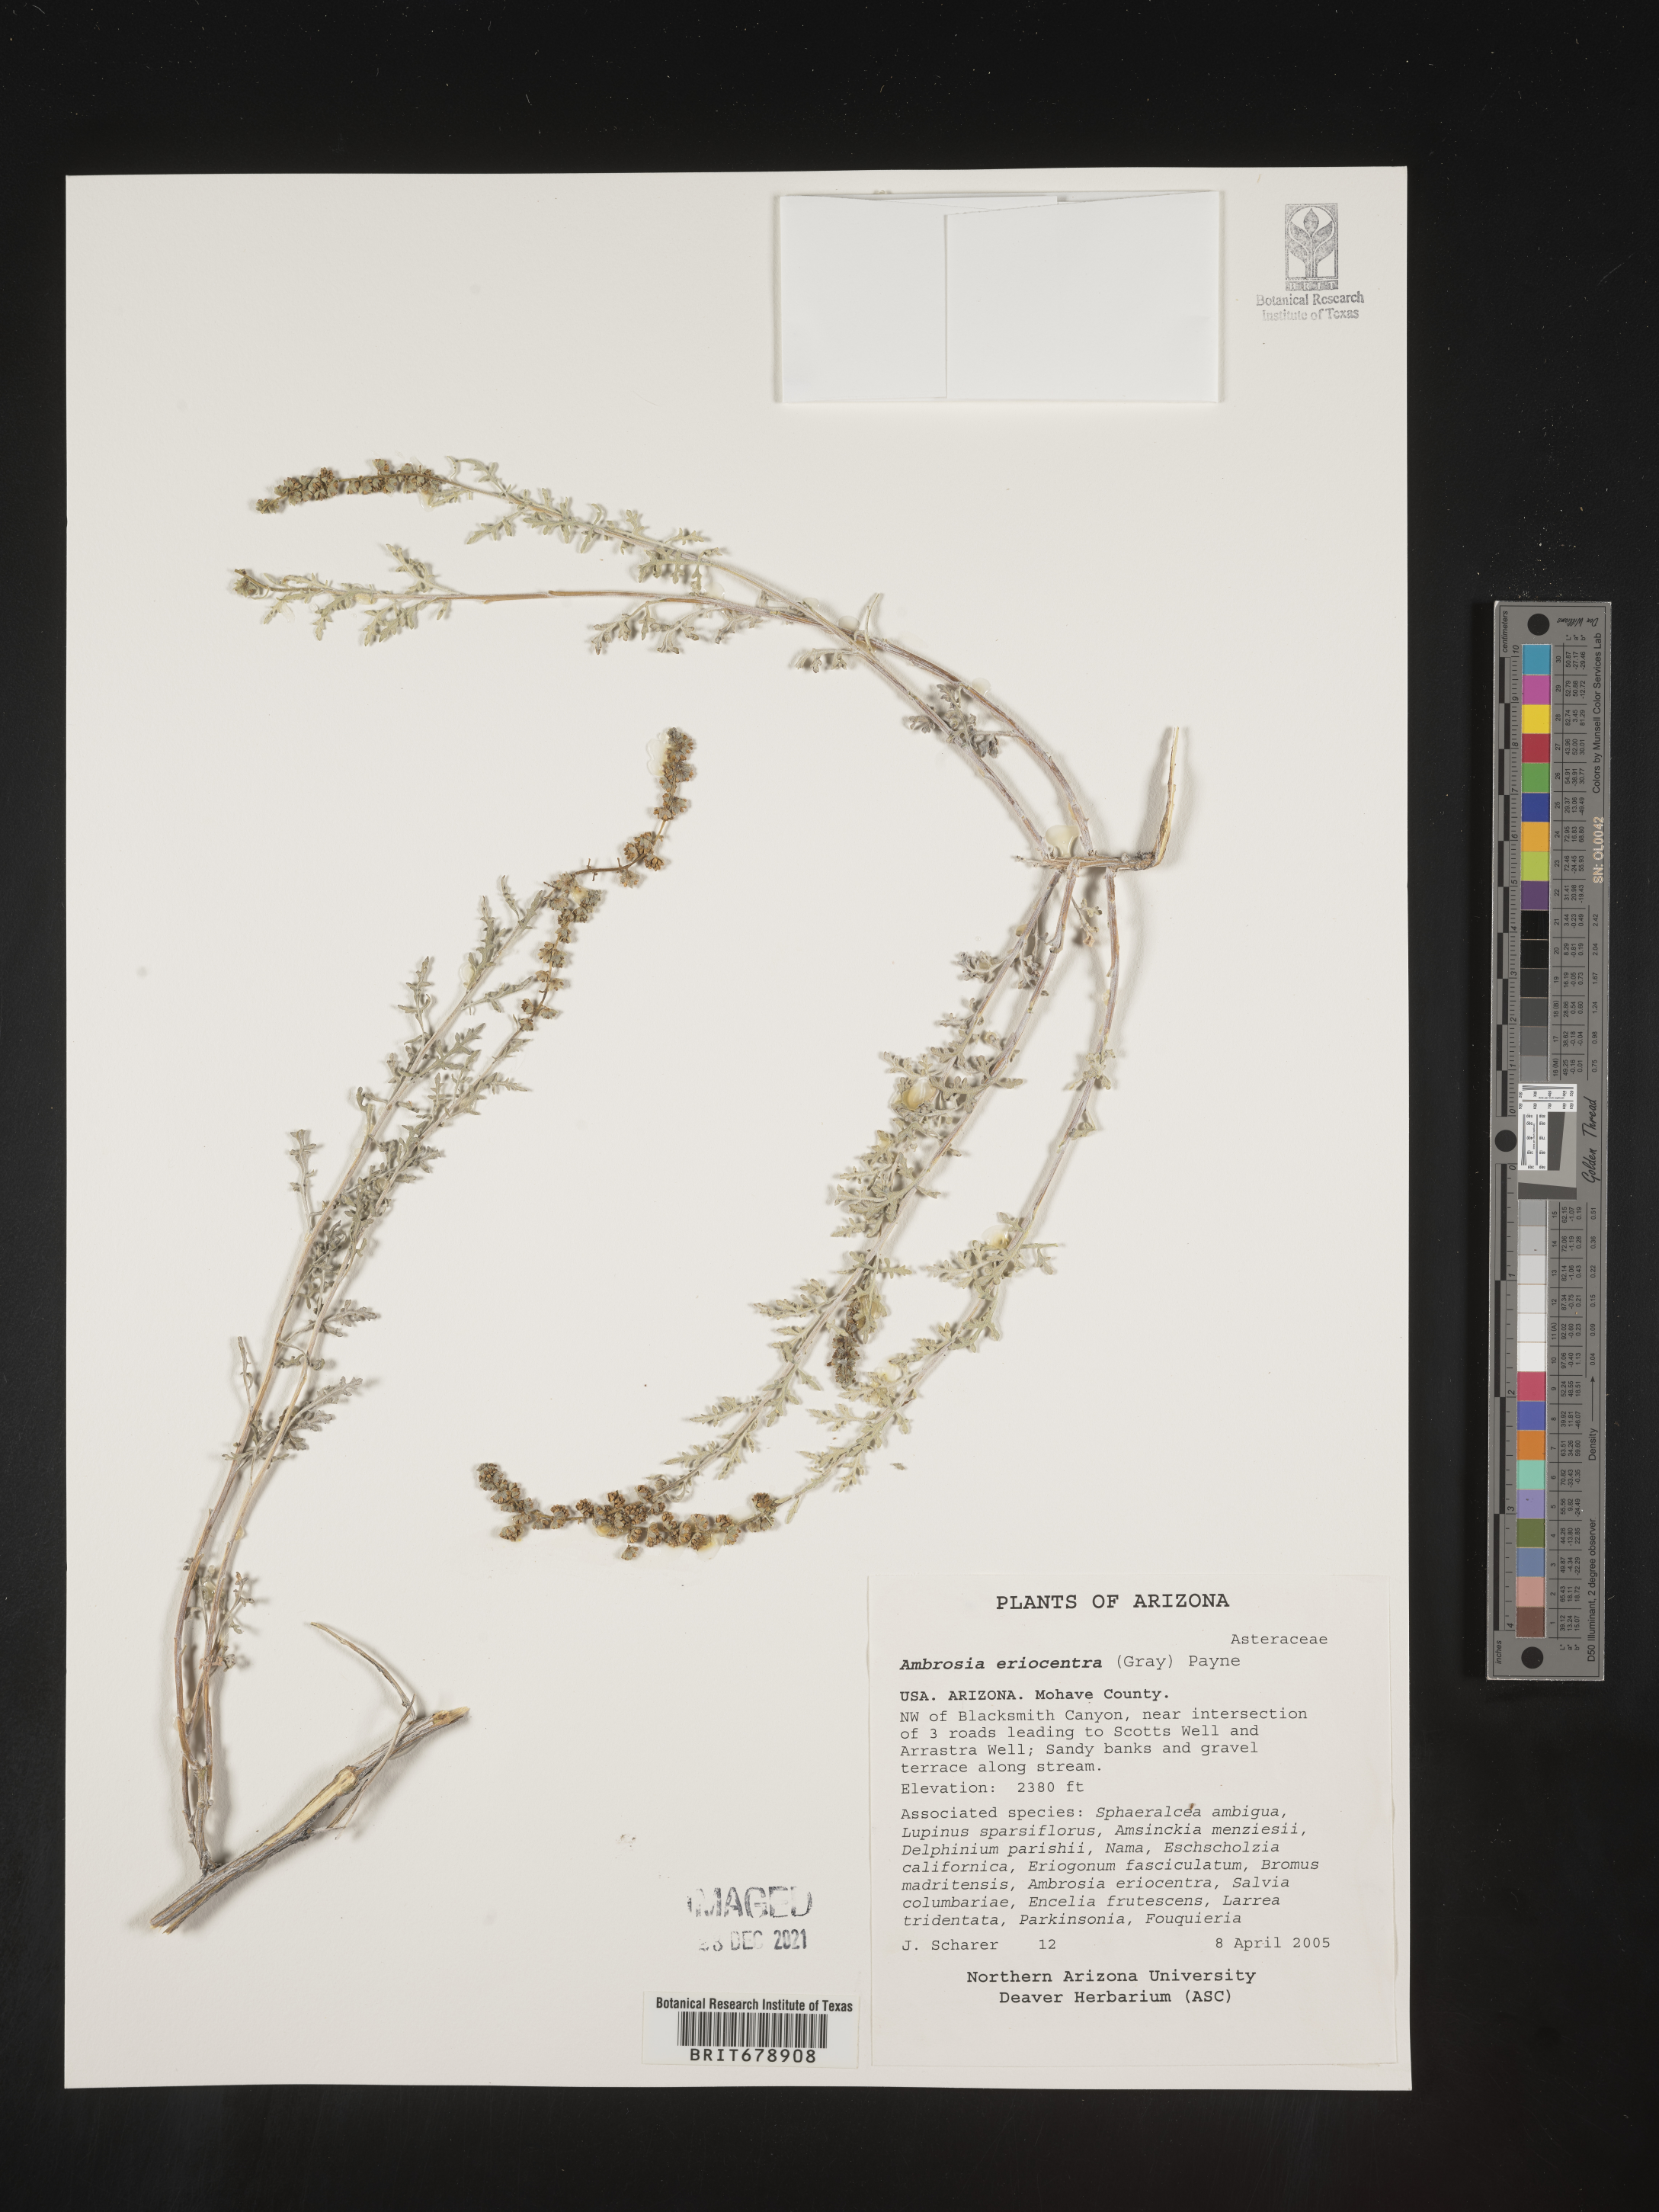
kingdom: Plantae
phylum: Tracheophyta
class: Magnoliopsida
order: Asterales
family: Asteraceae
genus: Ambrosia
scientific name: Ambrosia eriocentra
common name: Woolly bur-sage
